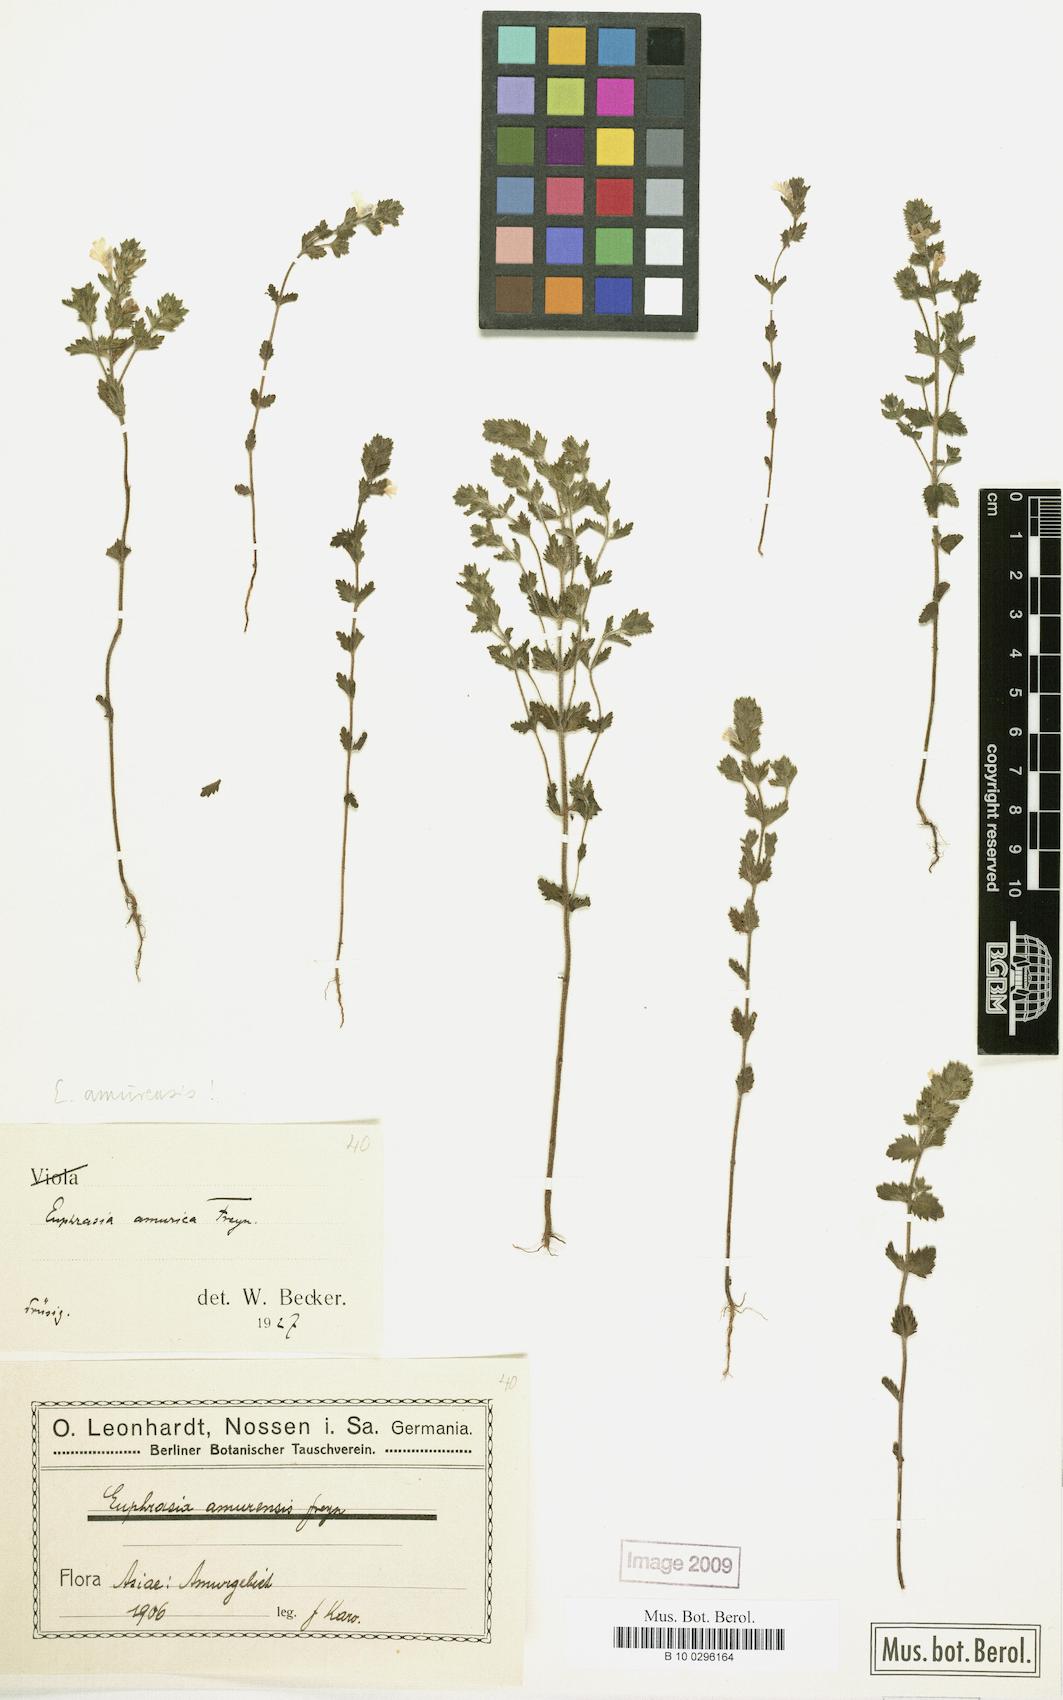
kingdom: Plantae
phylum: Tracheophyta
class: Magnoliopsida
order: Lamiales
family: Orobanchaceae
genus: Euphrasia
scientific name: Euphrasia amurensis
